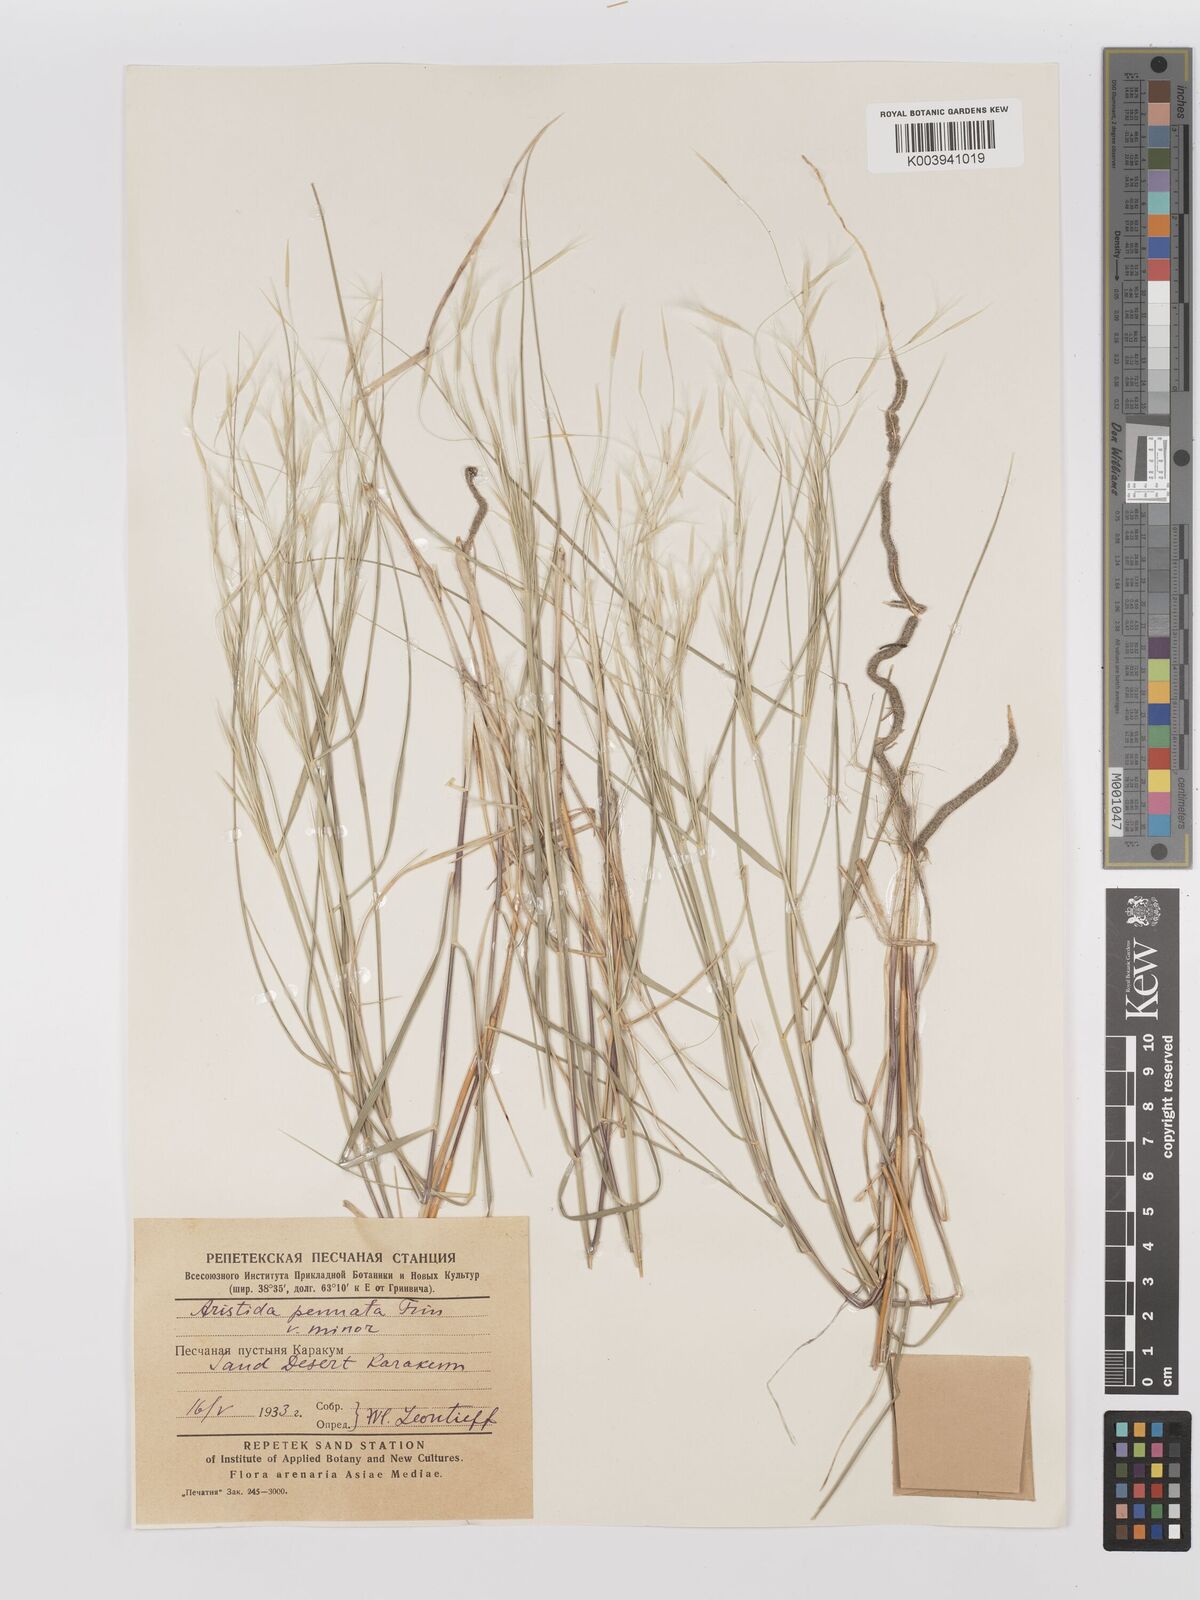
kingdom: Plantae
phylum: Tracheophyta
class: Liliopsida
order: Poales
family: Poaceae
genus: Stipagrostis
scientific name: Stipagrostis pennata
